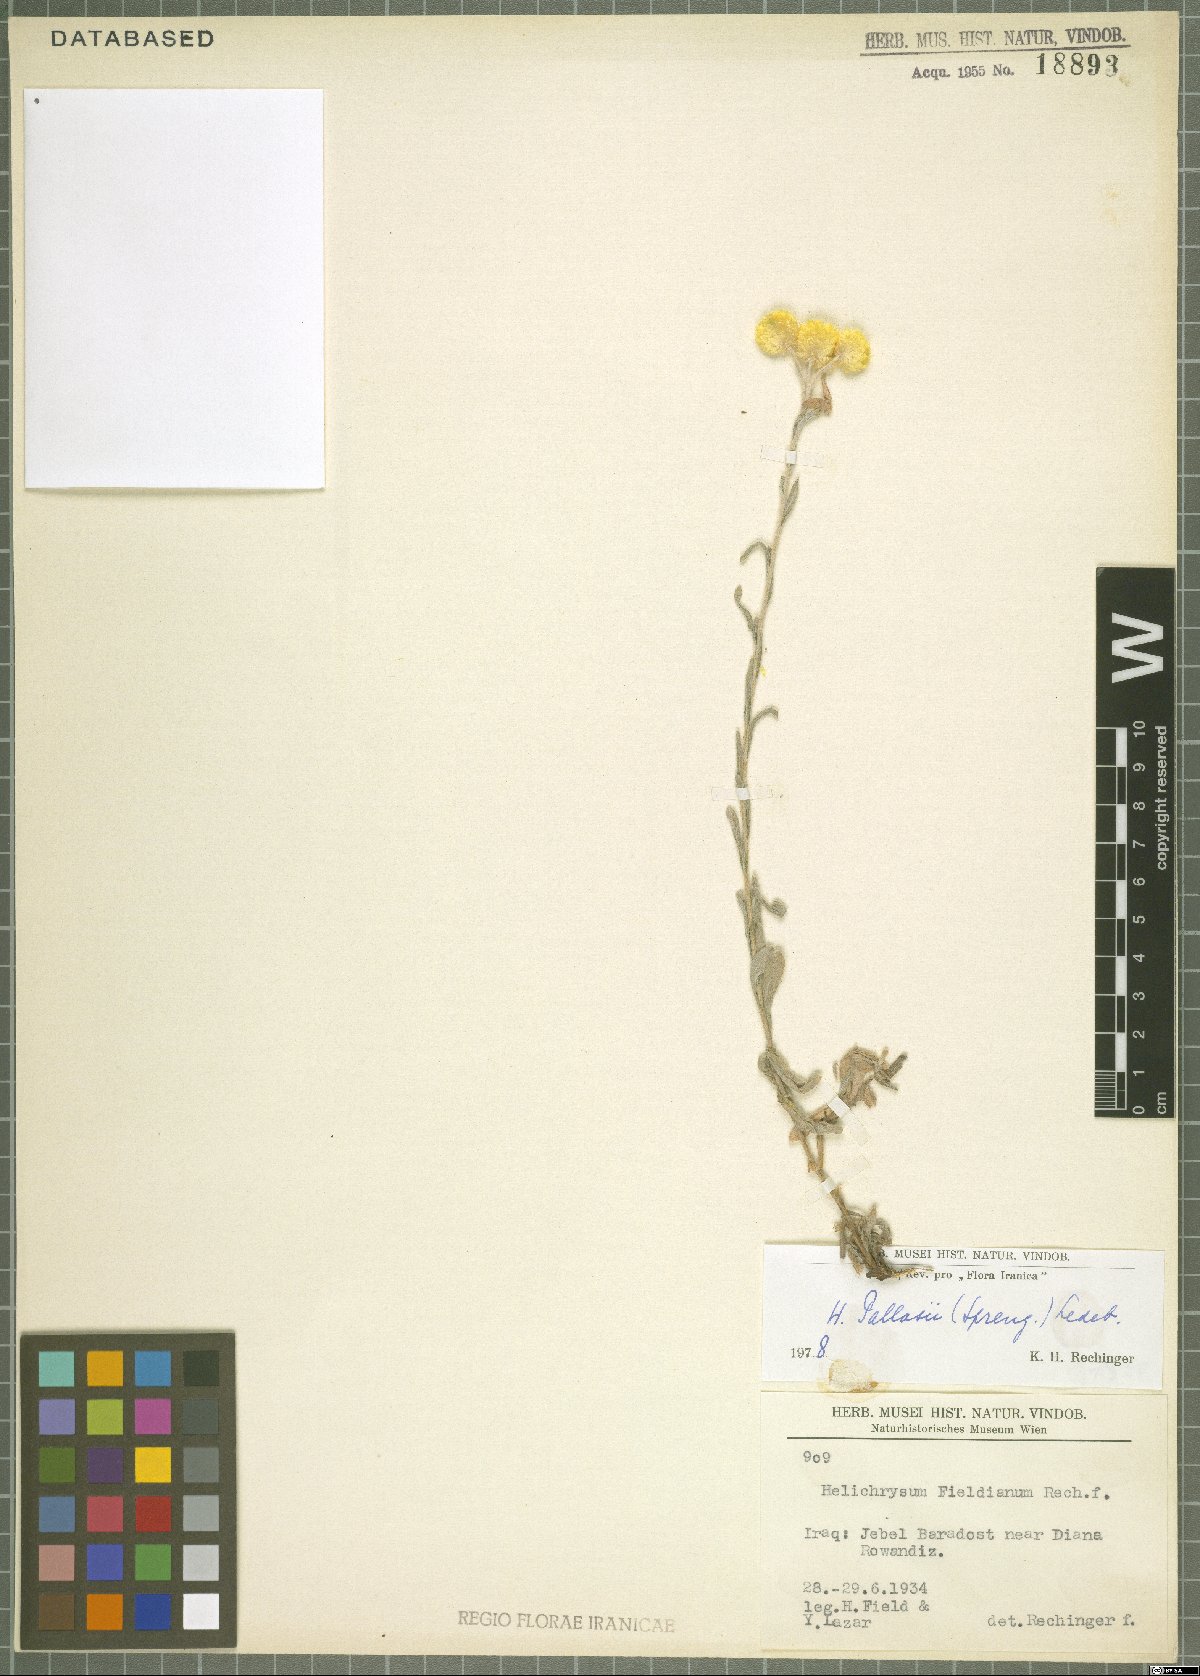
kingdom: Plantae
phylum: Tracheophyta
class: Magnoliopsida
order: Asterales
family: Asteraceae
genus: Helichrysum
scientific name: Helichrysum pallasii
